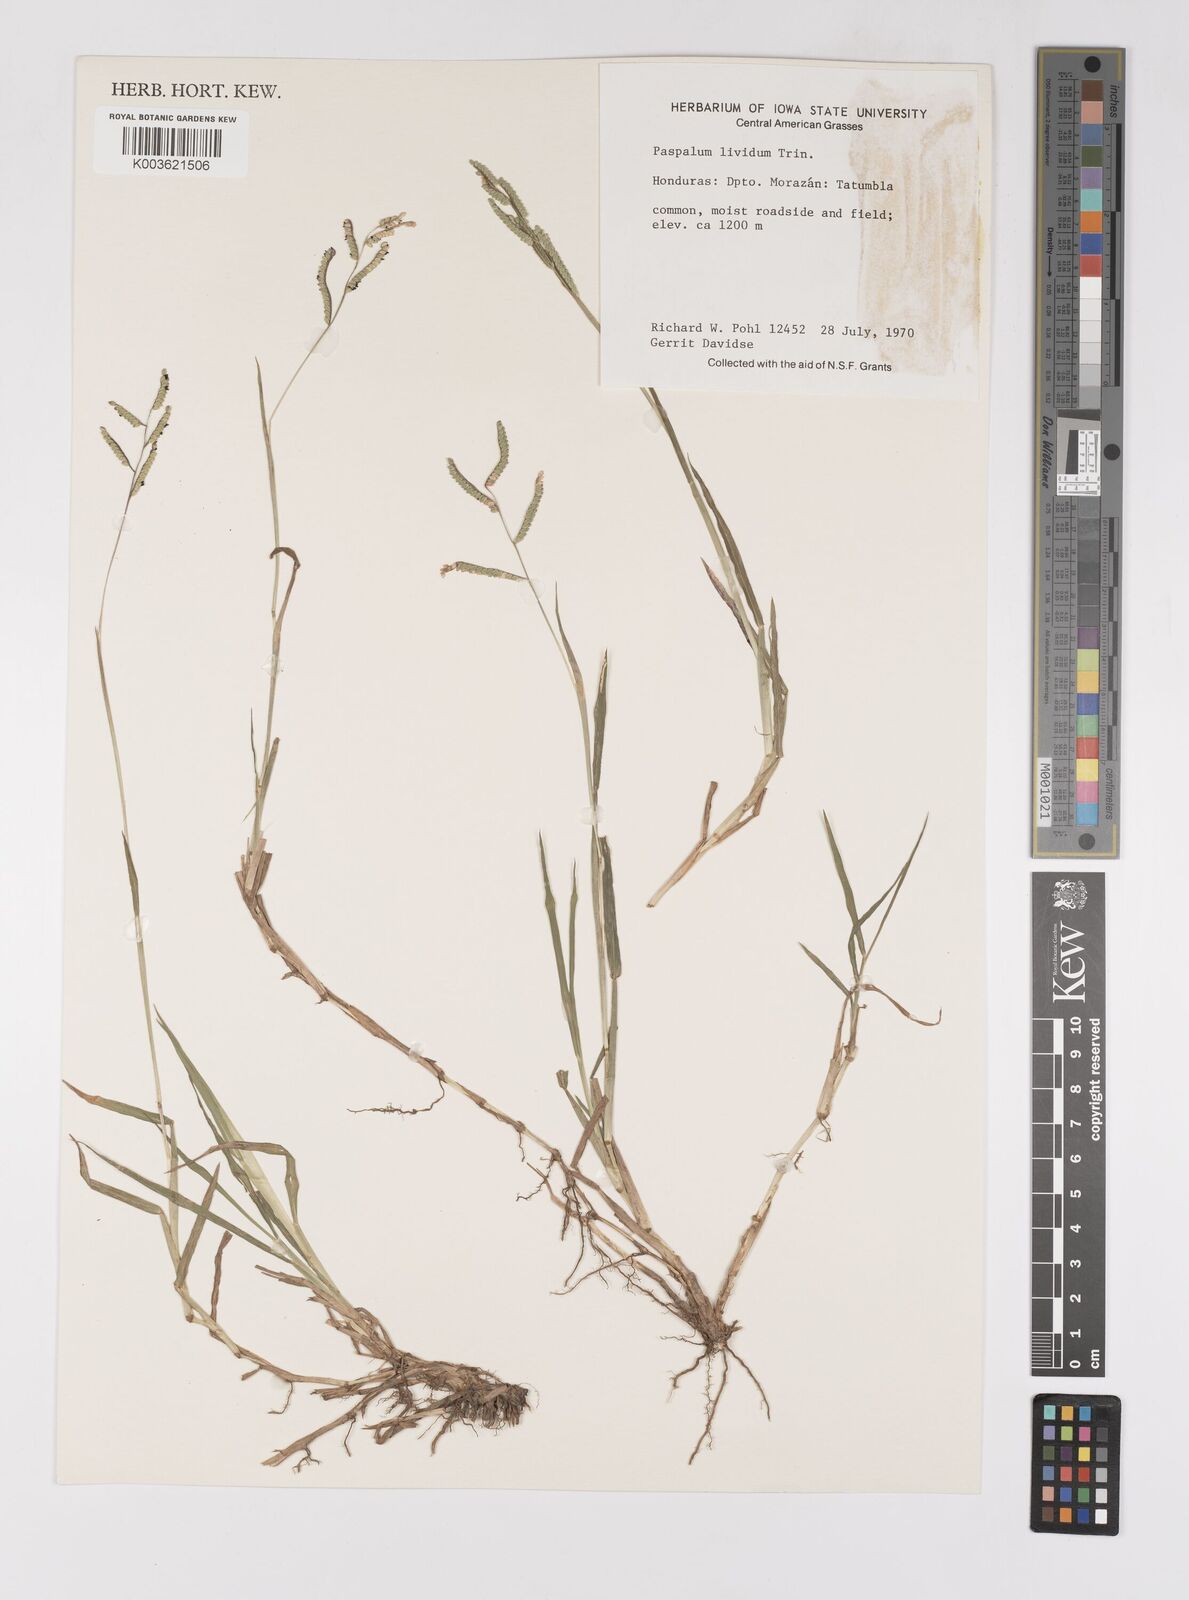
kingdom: Plantae
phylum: Tracheophyta
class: Liliopsida
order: Poales
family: Poaceae
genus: Paspalum
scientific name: Paspalum denticulatum
